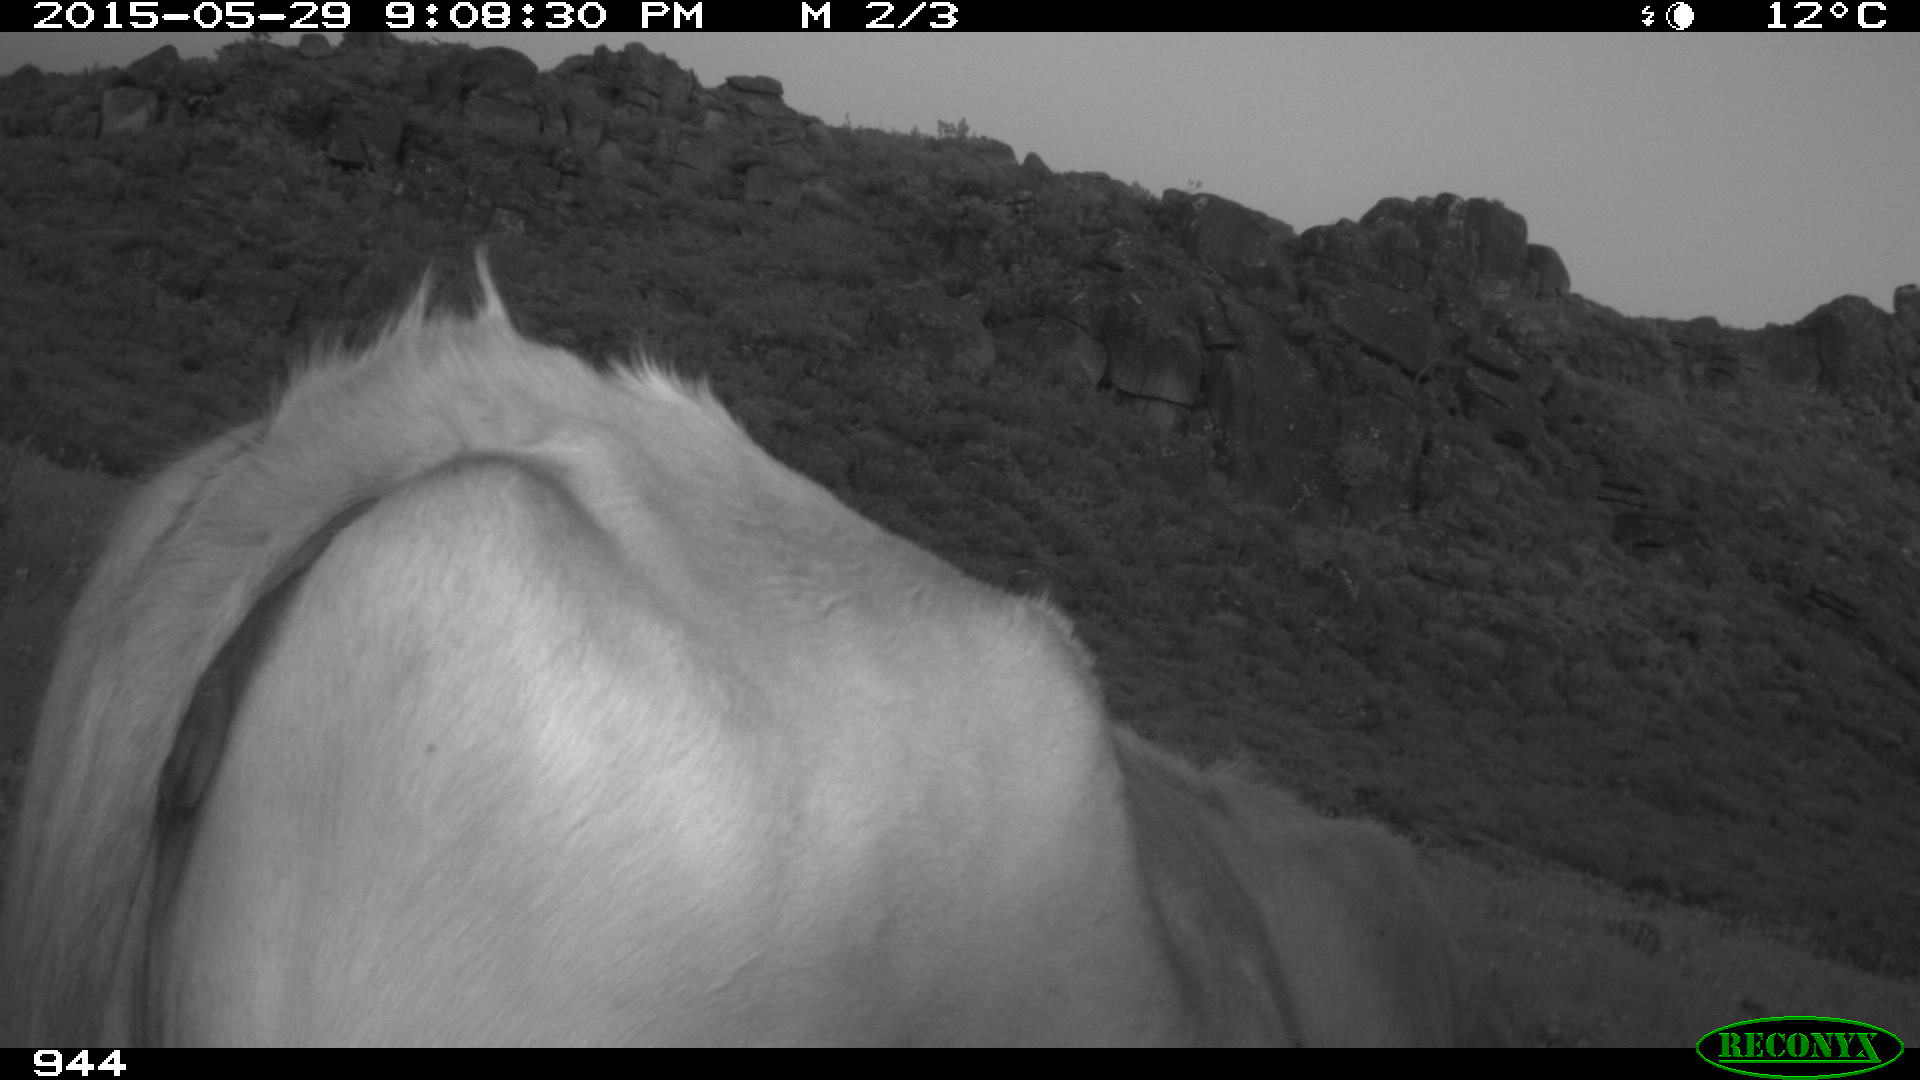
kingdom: Animalia
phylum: Chordata
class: Mammalia
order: Artiodactyla
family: Bovidae
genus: Bos
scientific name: Bos taurus
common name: Domesticated cattle
